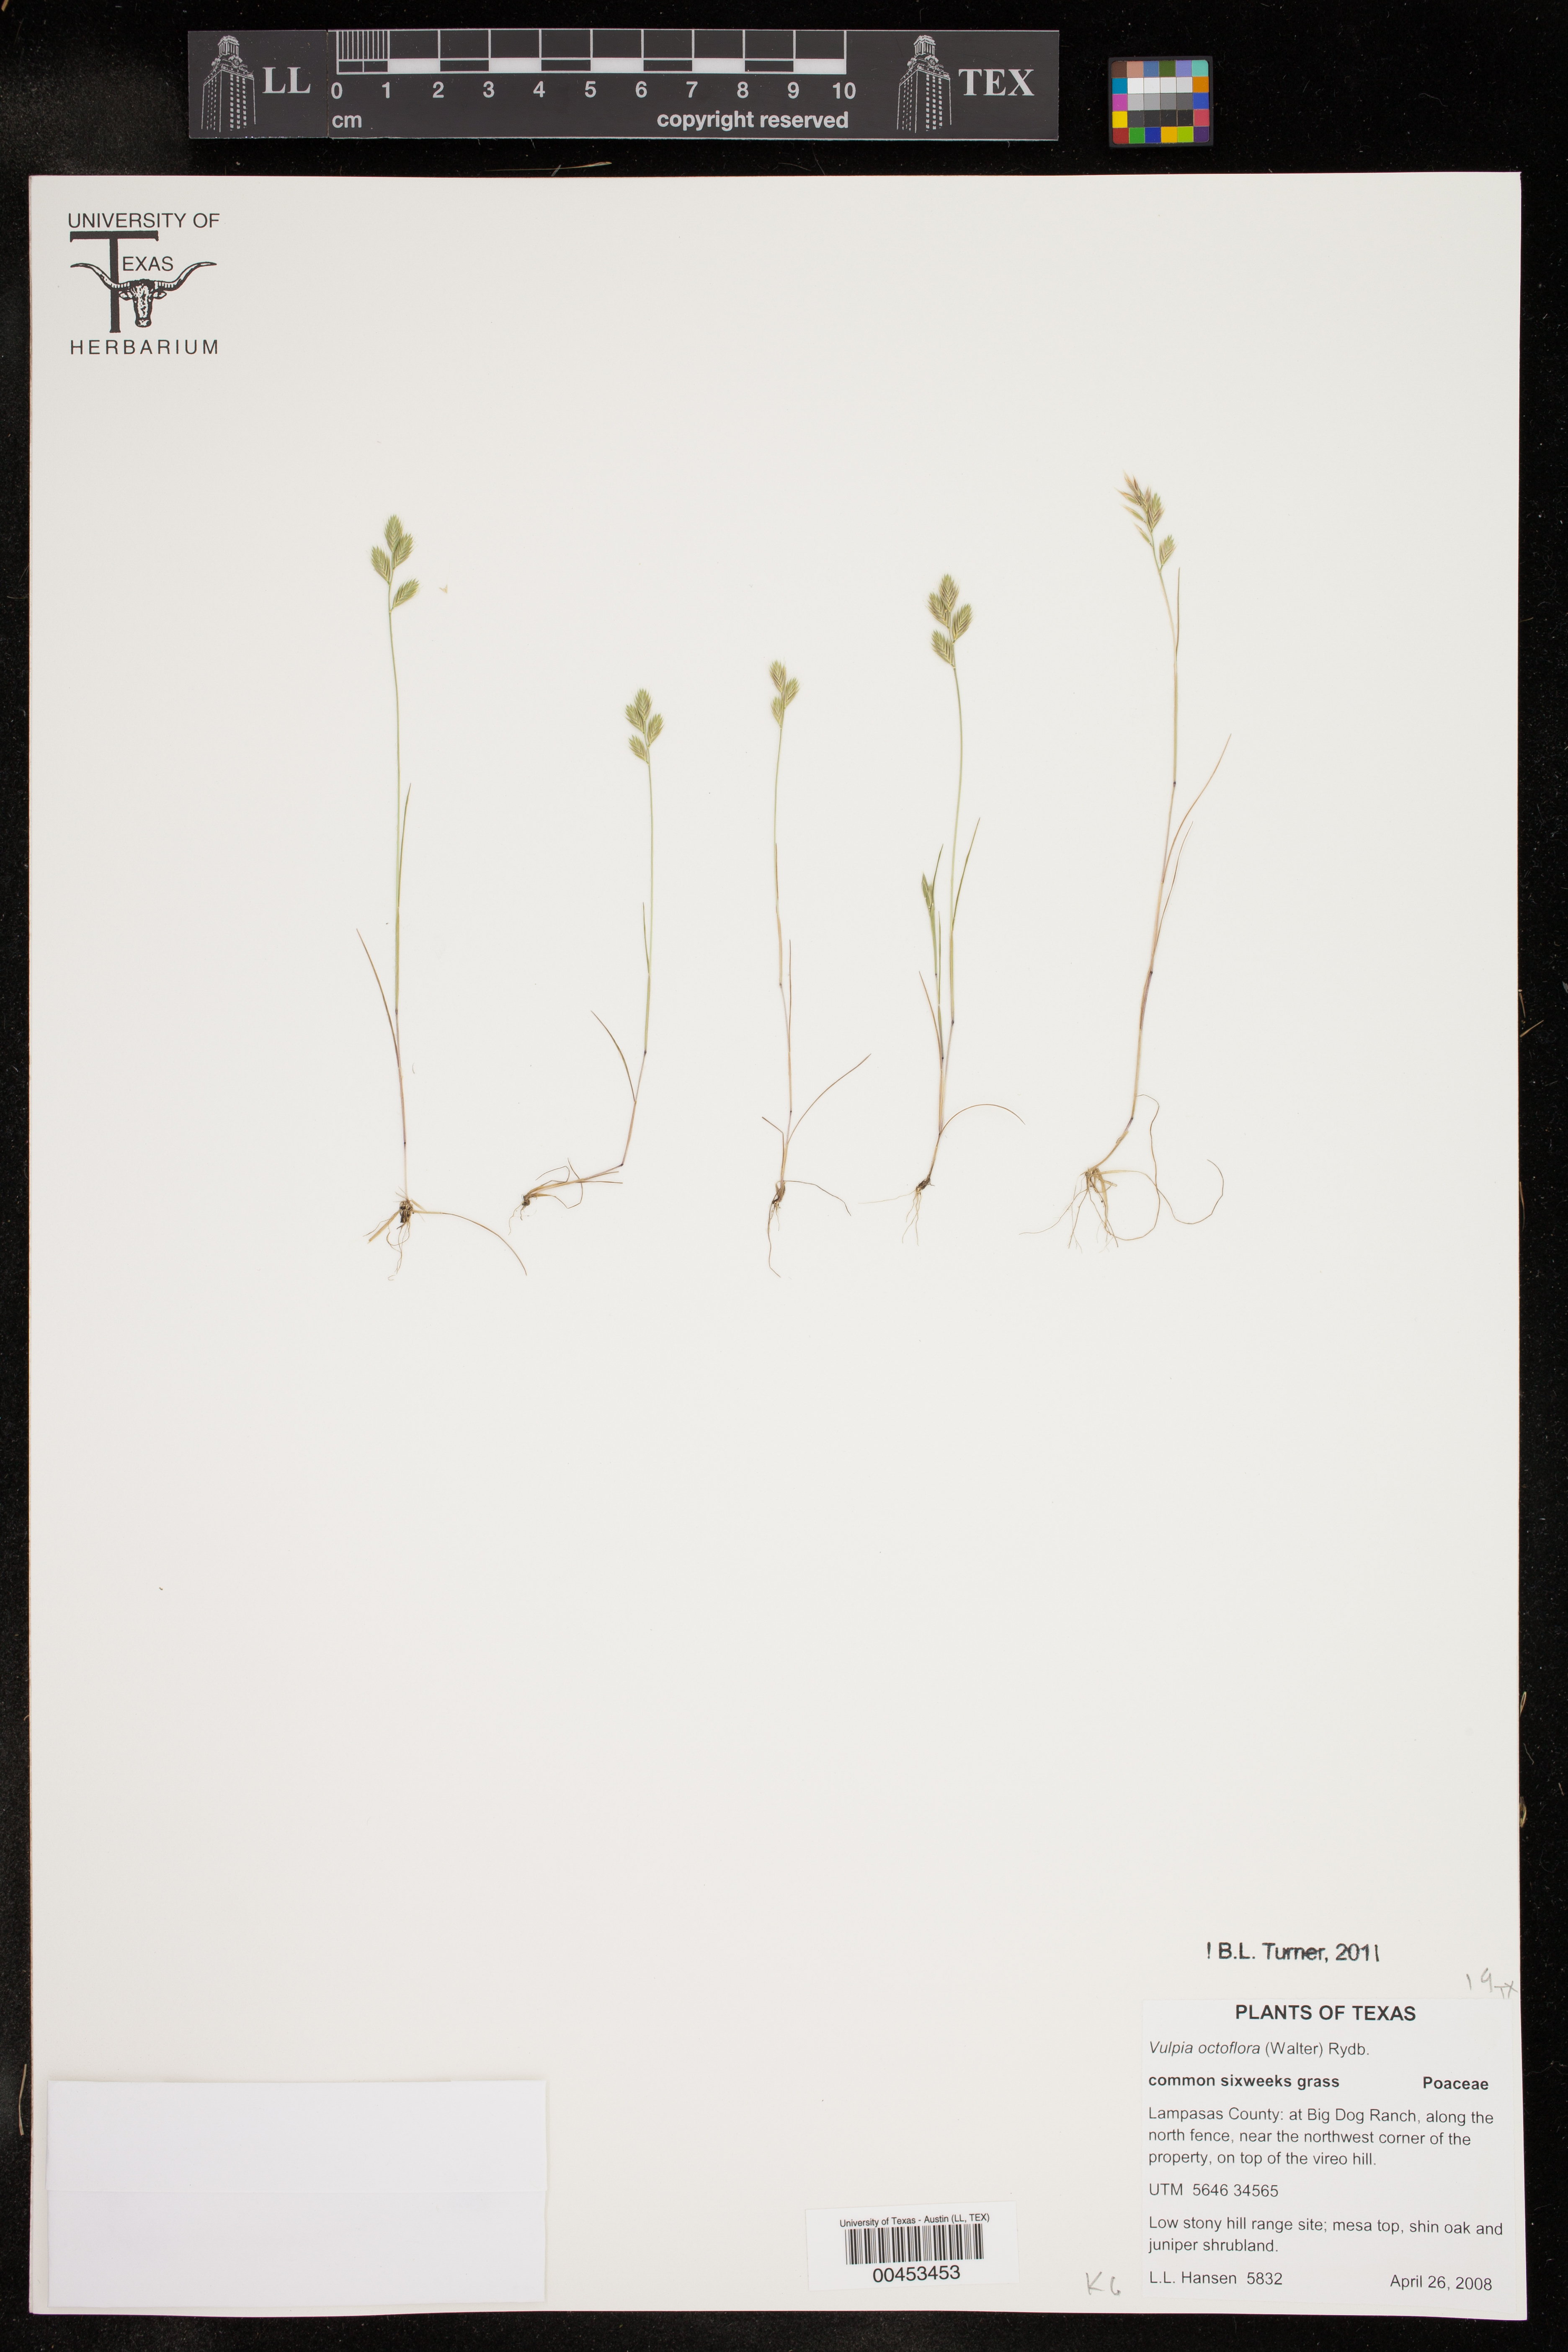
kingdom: Plantae
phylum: Tracheophyta
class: Liliopsida
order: Poales
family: Poaceae
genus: Festuca
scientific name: Festuca octoflora
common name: Sixweeks grass
